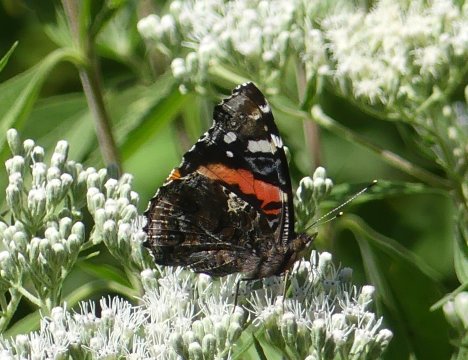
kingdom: Animalia
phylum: Arthropoda
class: Insecta
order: Lepidoptera
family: Nymphalidae
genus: Vanessa
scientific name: Vanessa atalanta
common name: Red Admiral
